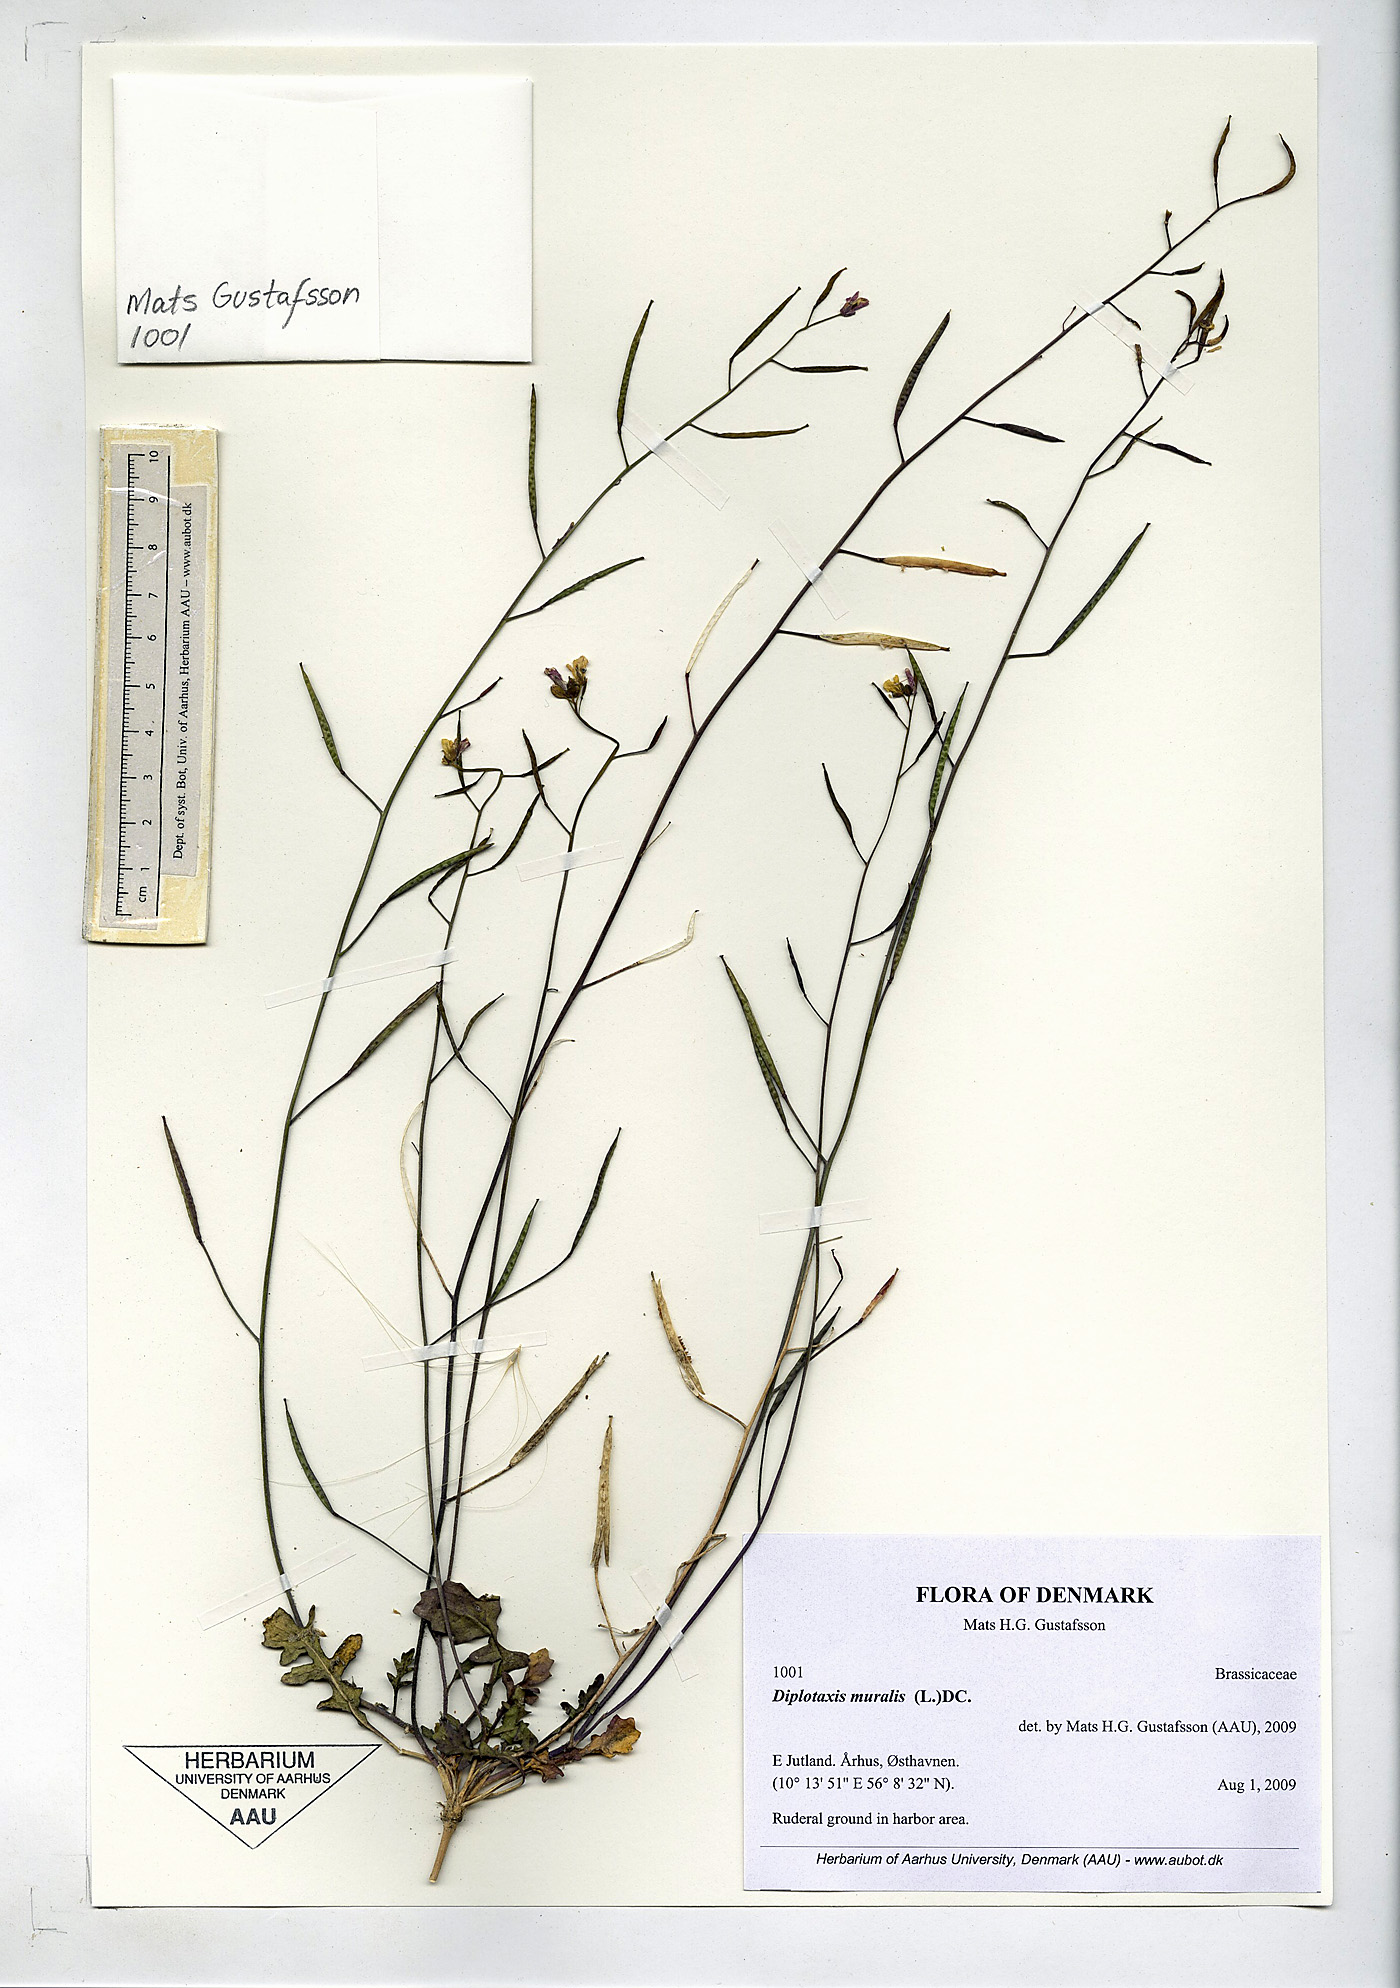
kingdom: Plantae
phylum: Tracheophyta
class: Magnoliopsida
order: Brassicales
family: Brassicaceae
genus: Diplotaxis
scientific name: Diplotaxis muralis
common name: Annual wall-rocket
